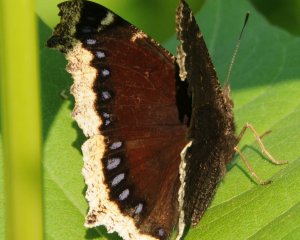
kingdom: Animalia
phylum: Arthropoda
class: Insecta
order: Lepidoptera
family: Nymphalidae
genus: Nymphalis
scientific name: Nymphalis antiopa
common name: Mourning Cloak
